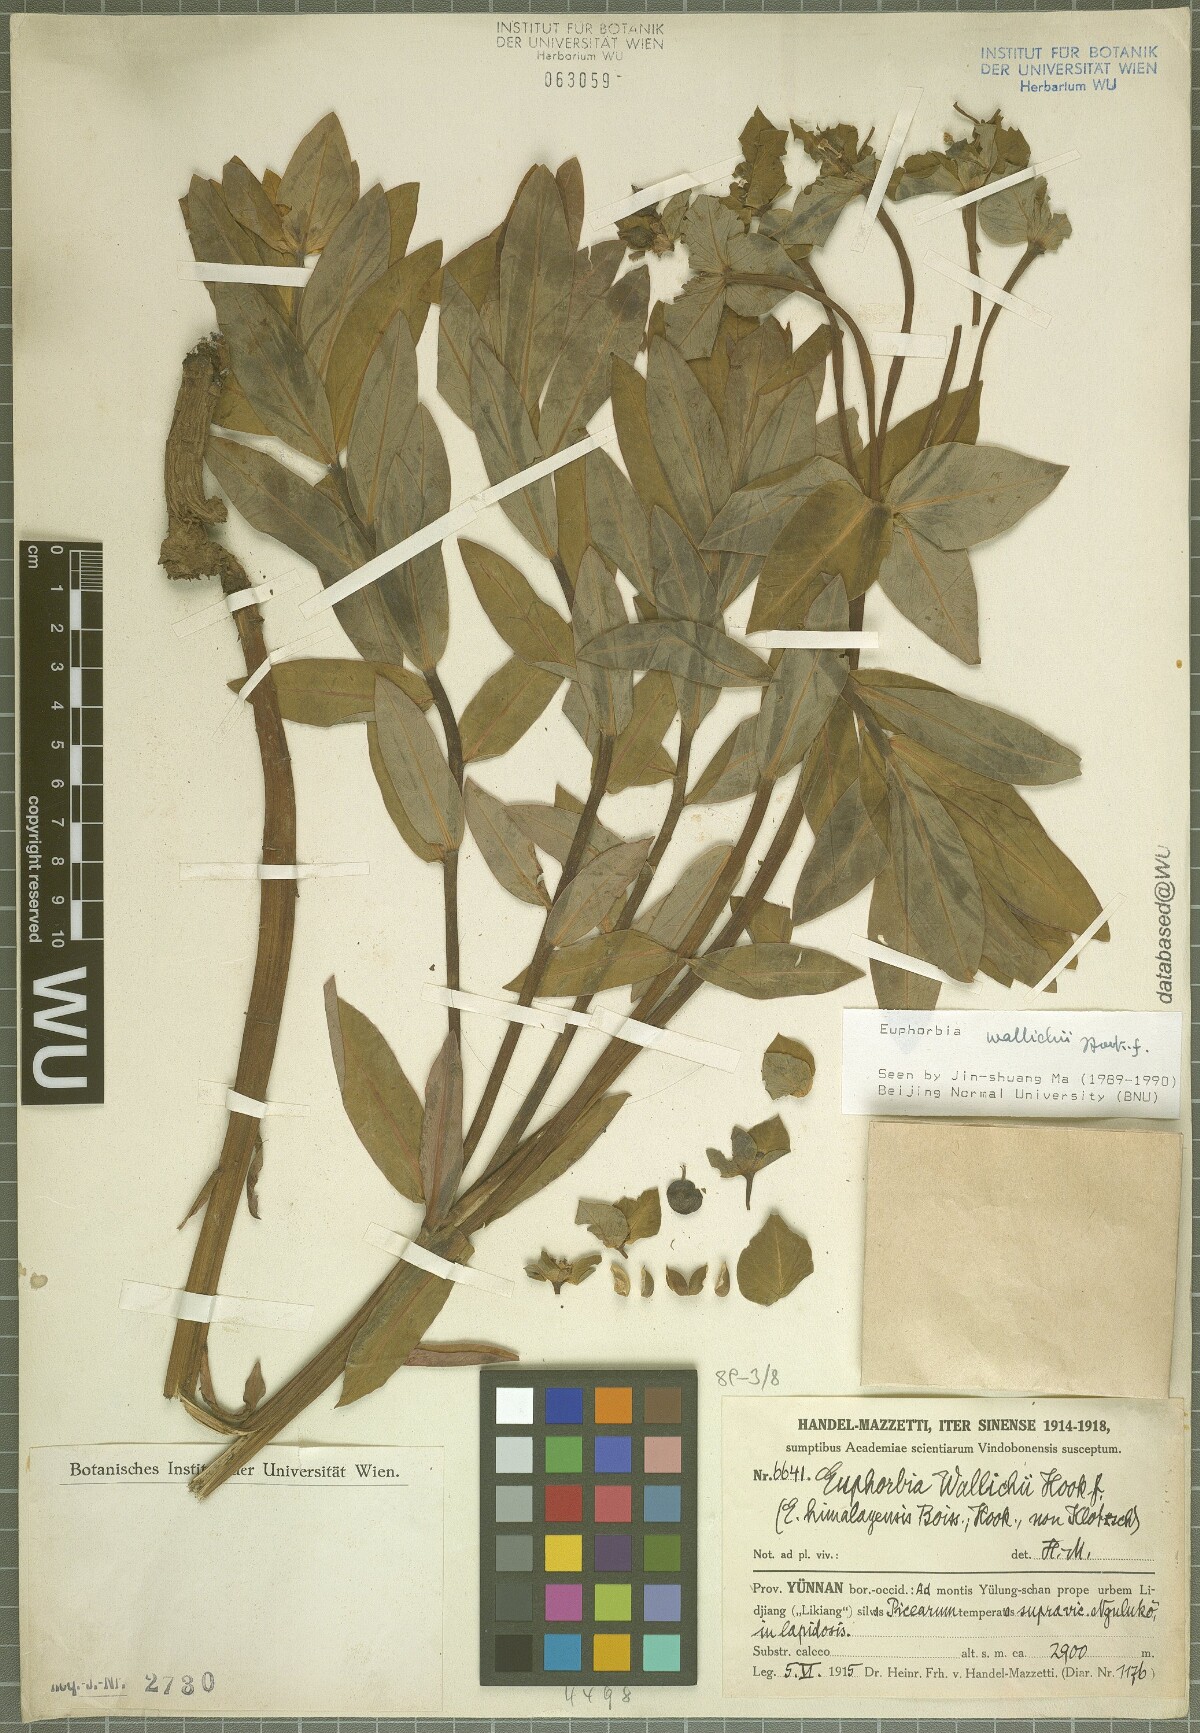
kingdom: Plantae
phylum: Tracheophyta
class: Magnoliopsida
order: Malpighiales
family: Euphorbiaceae
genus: Euphorbia
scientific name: Euphorbia wallichii
